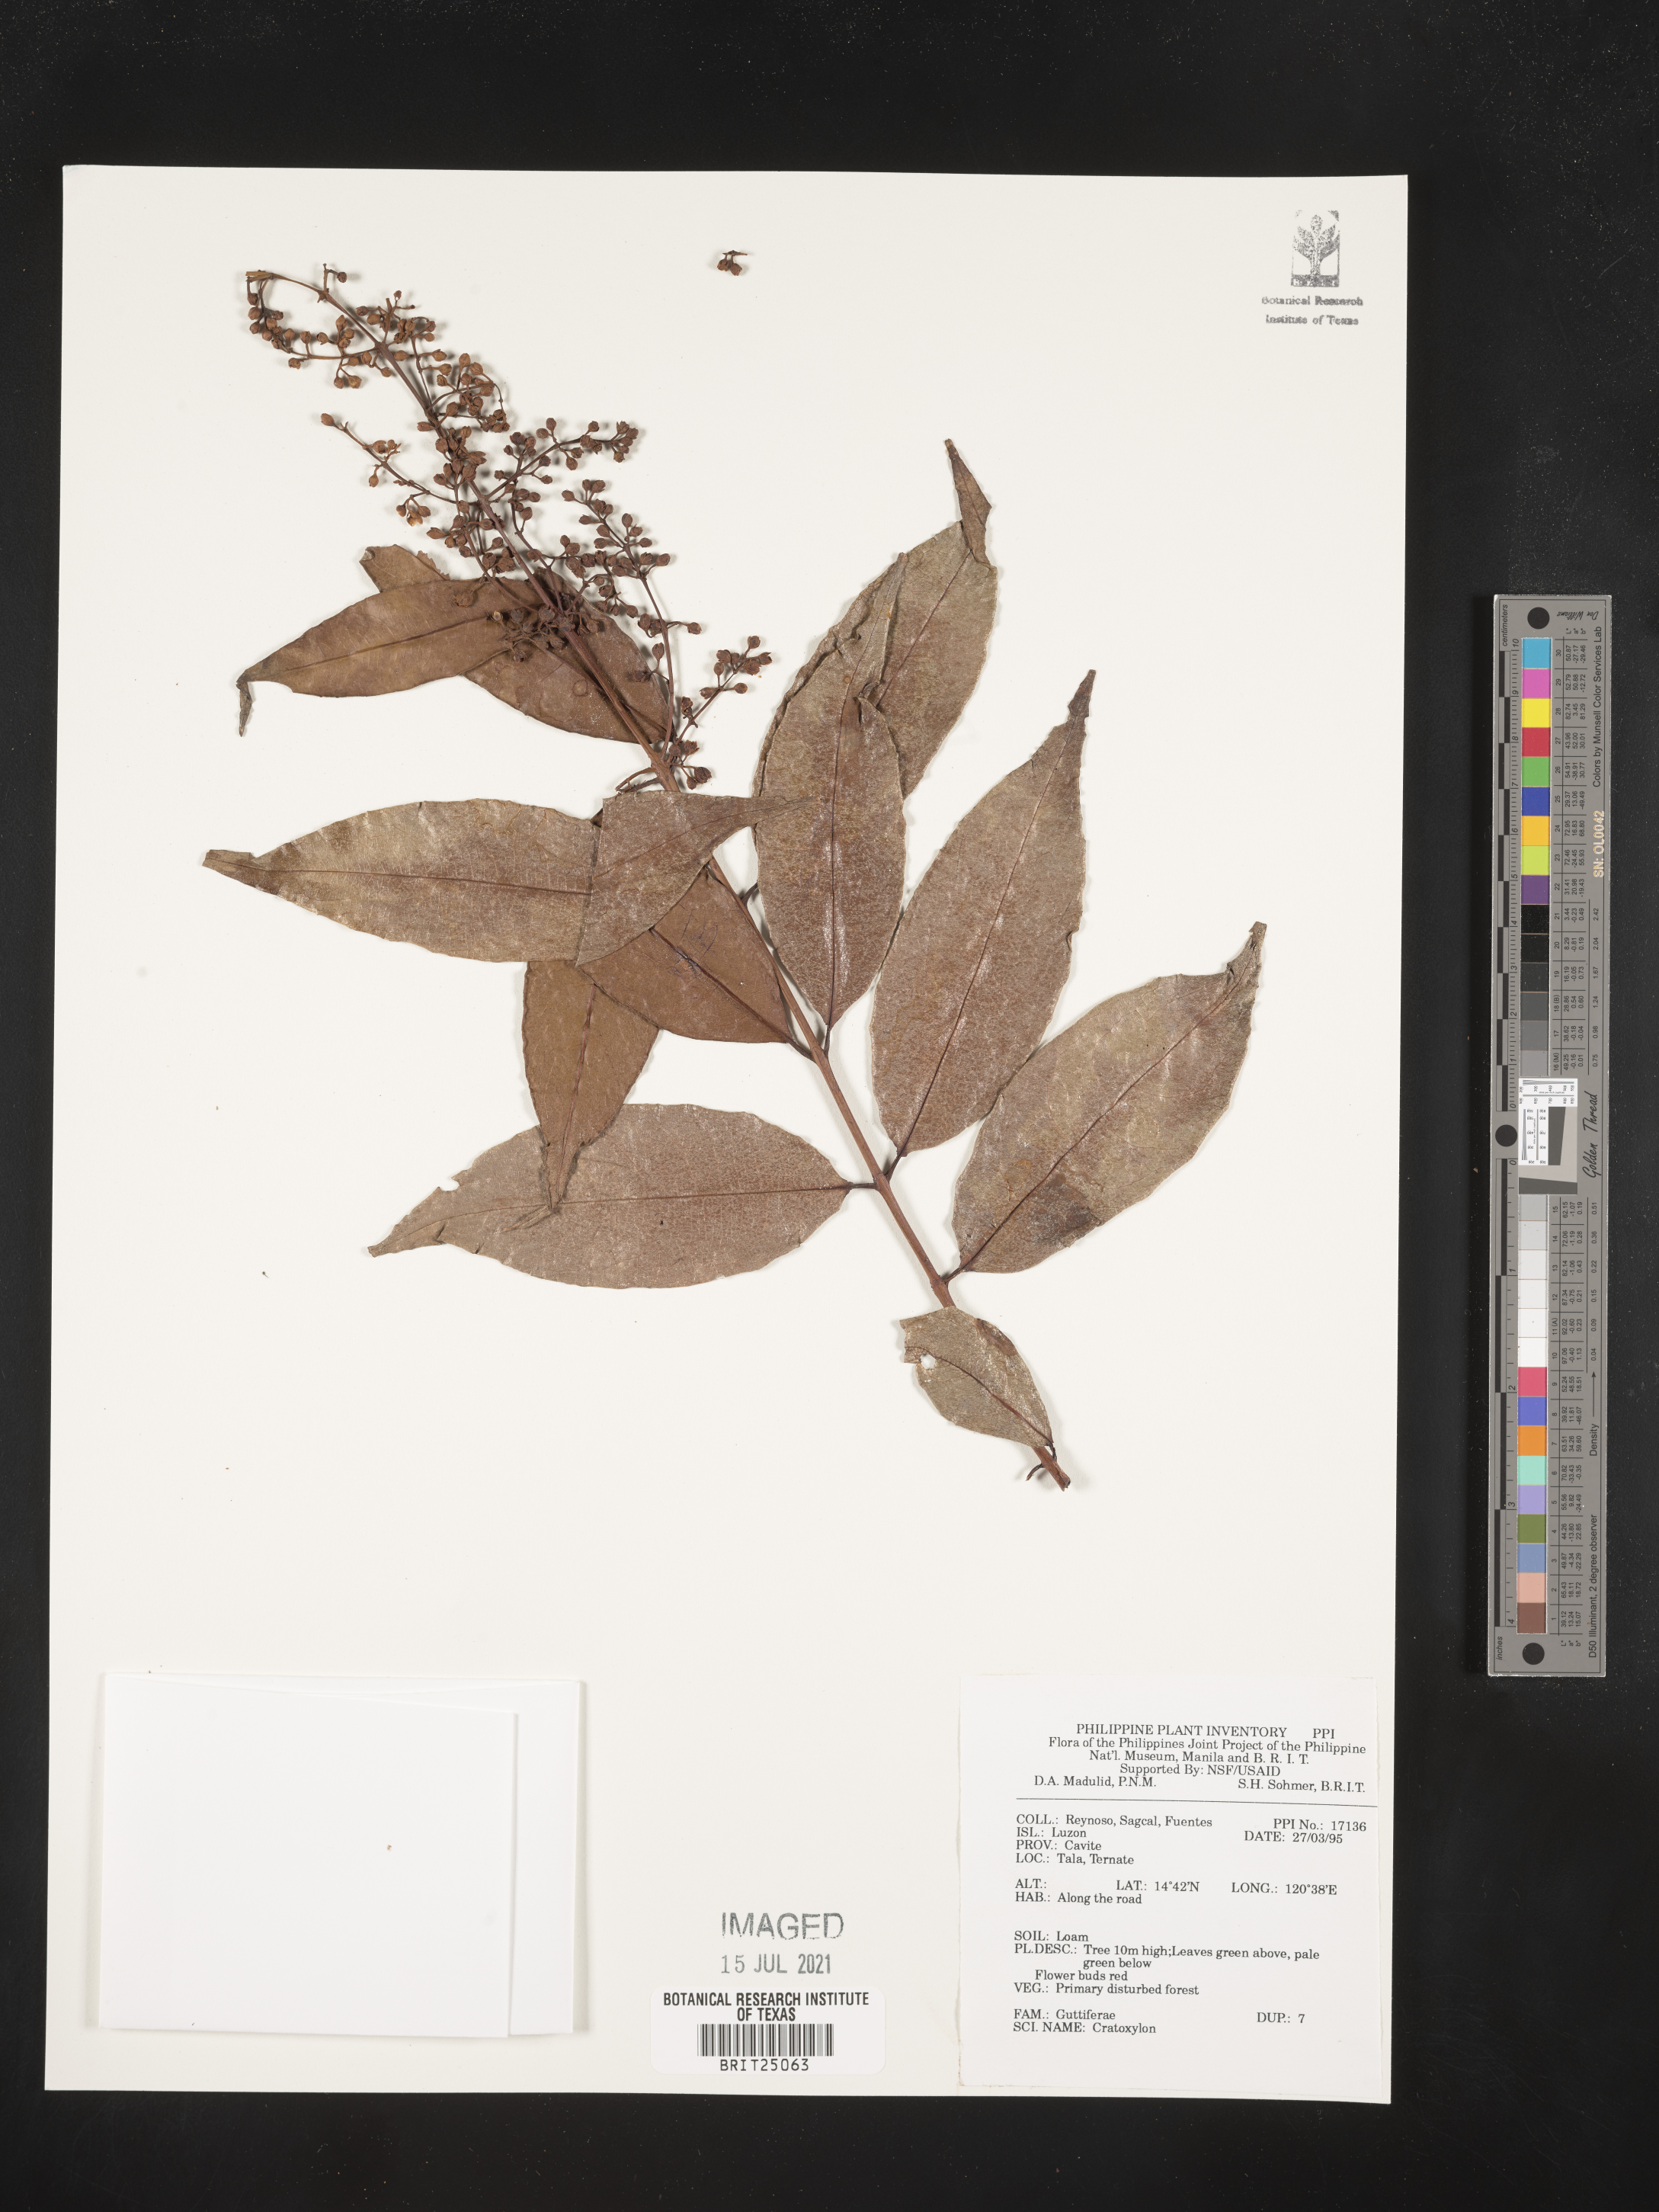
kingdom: Plantae
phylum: Tracheophyta
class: Magnoliopsida
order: Malpighiales
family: Hypericaceae
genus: Cratoxylum
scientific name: Cratoxylum
